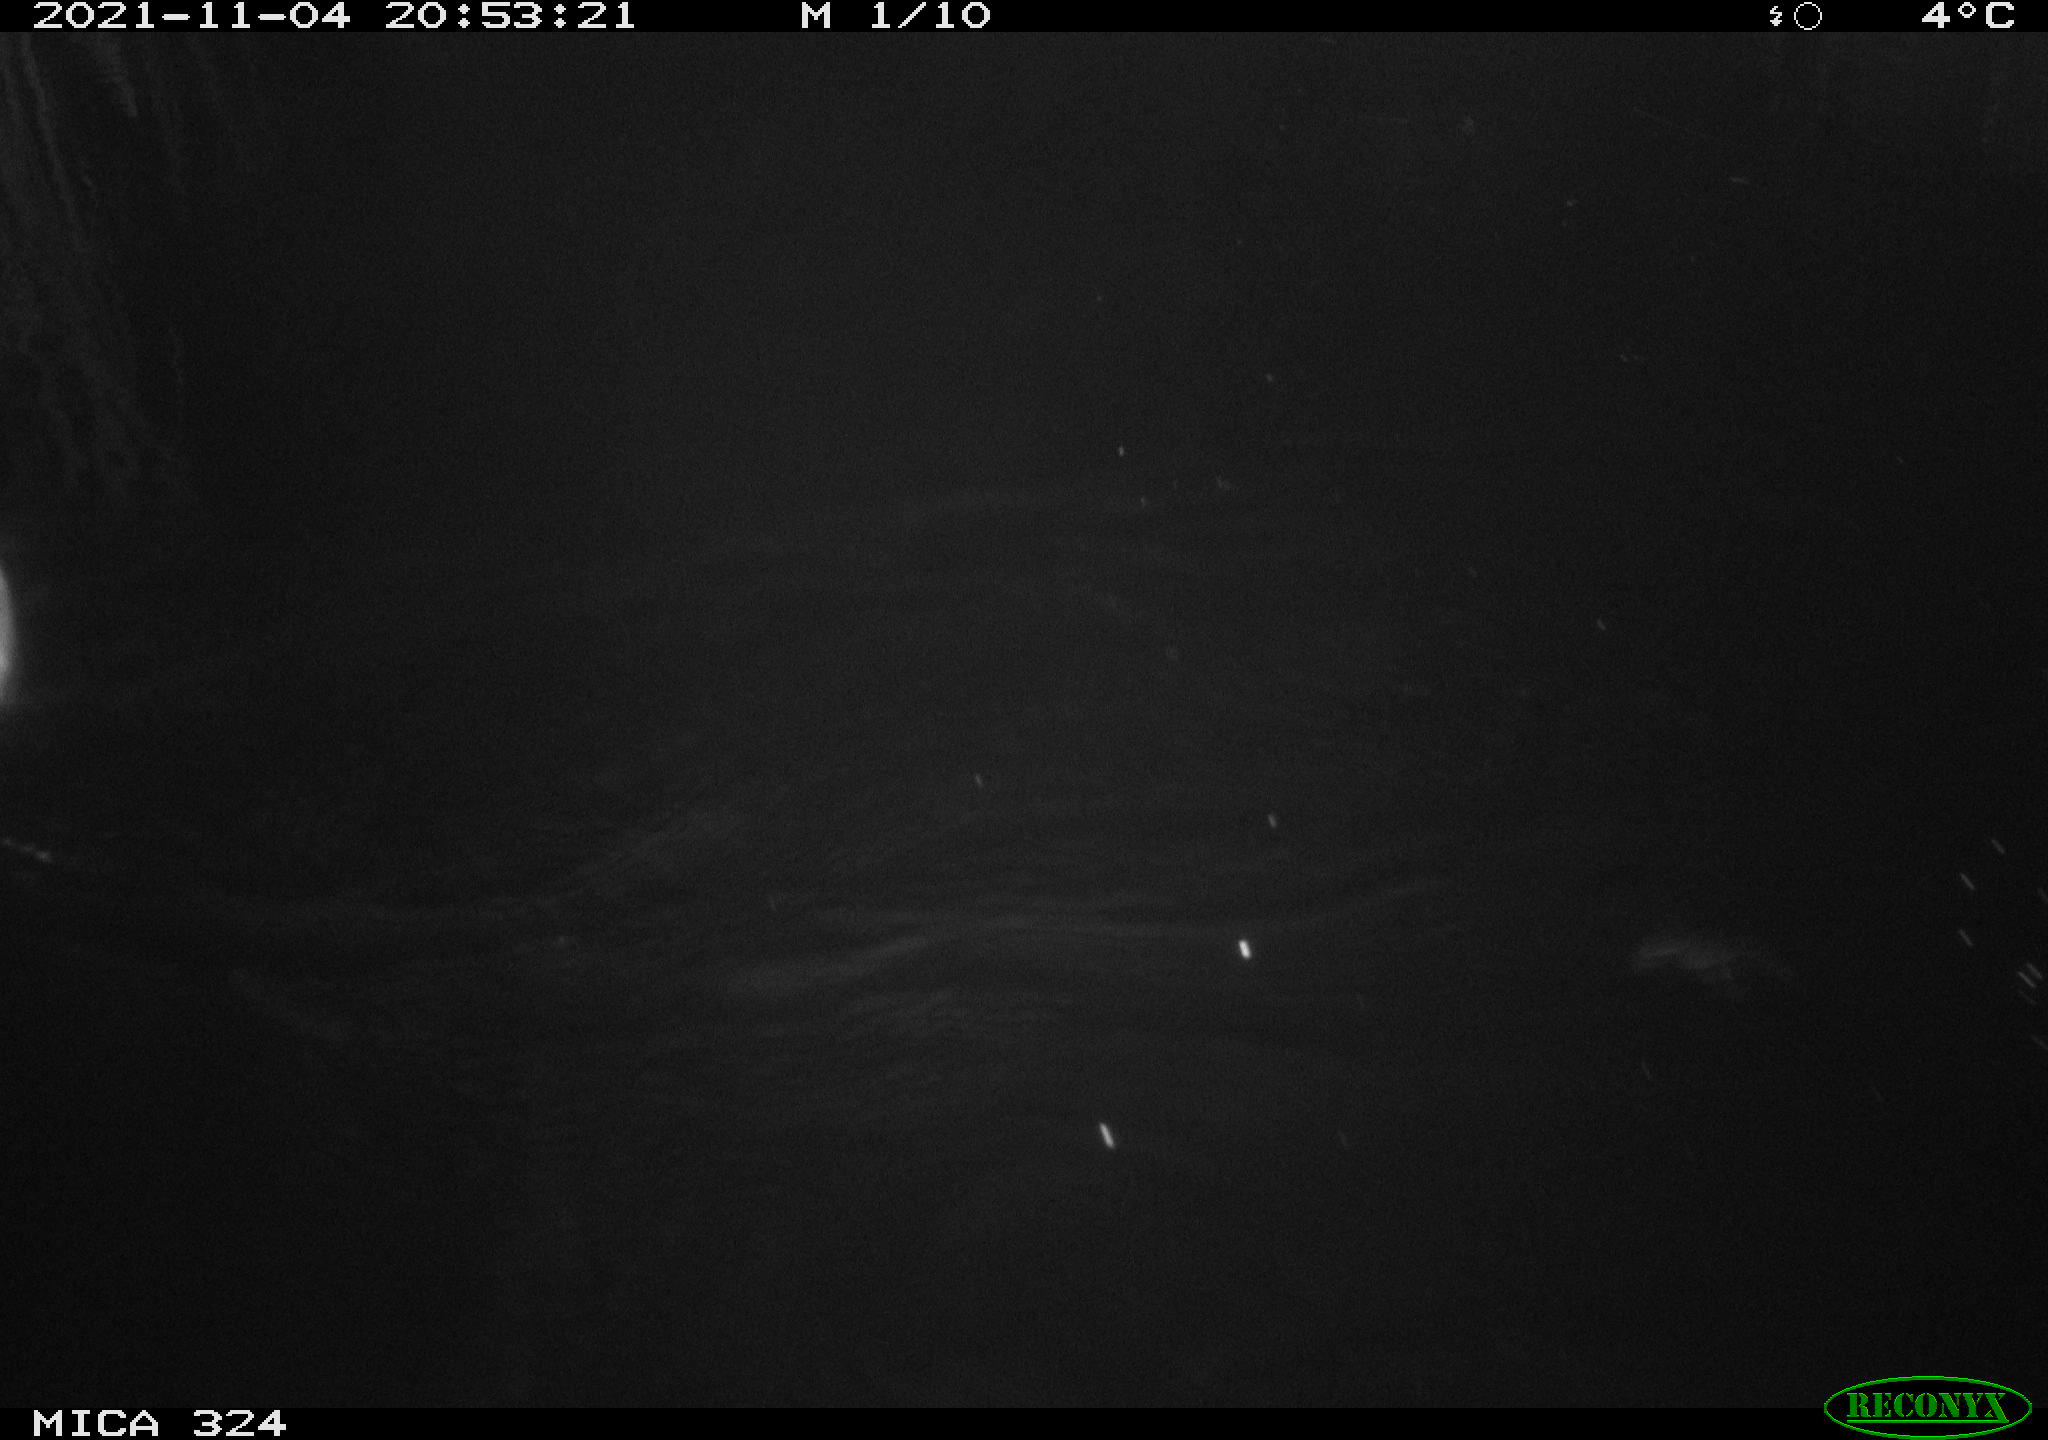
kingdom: Animalia
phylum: Chordata
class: Mammalia
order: Rodentia
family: Cricetidae
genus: Ondatra
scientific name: Ondatra zibethicus
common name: Muskrat
